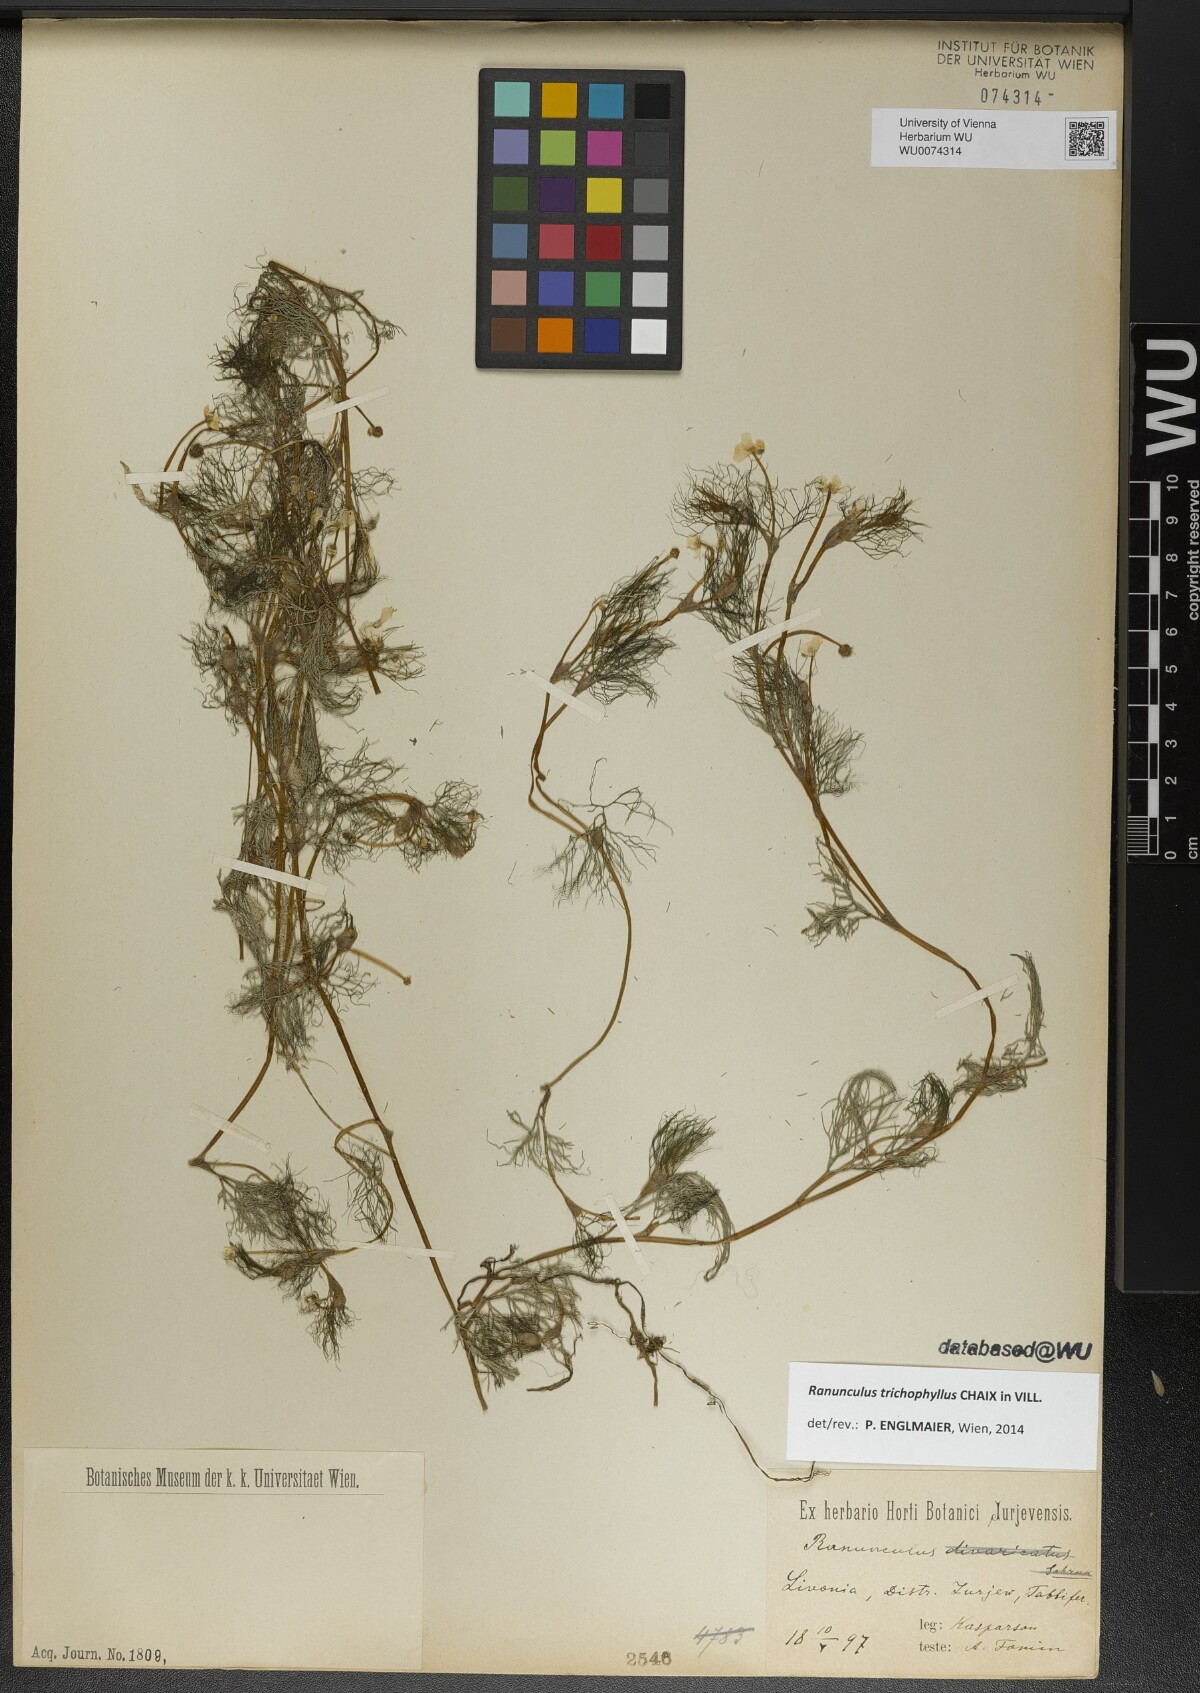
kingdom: Plantae
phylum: Tracheophyta
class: Magnoliopsida
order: Ranunculales
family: Ranunculaceae
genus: Ranunculus
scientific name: Ranunculus trichophyllus
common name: Thread-leaved water-crowfoot
